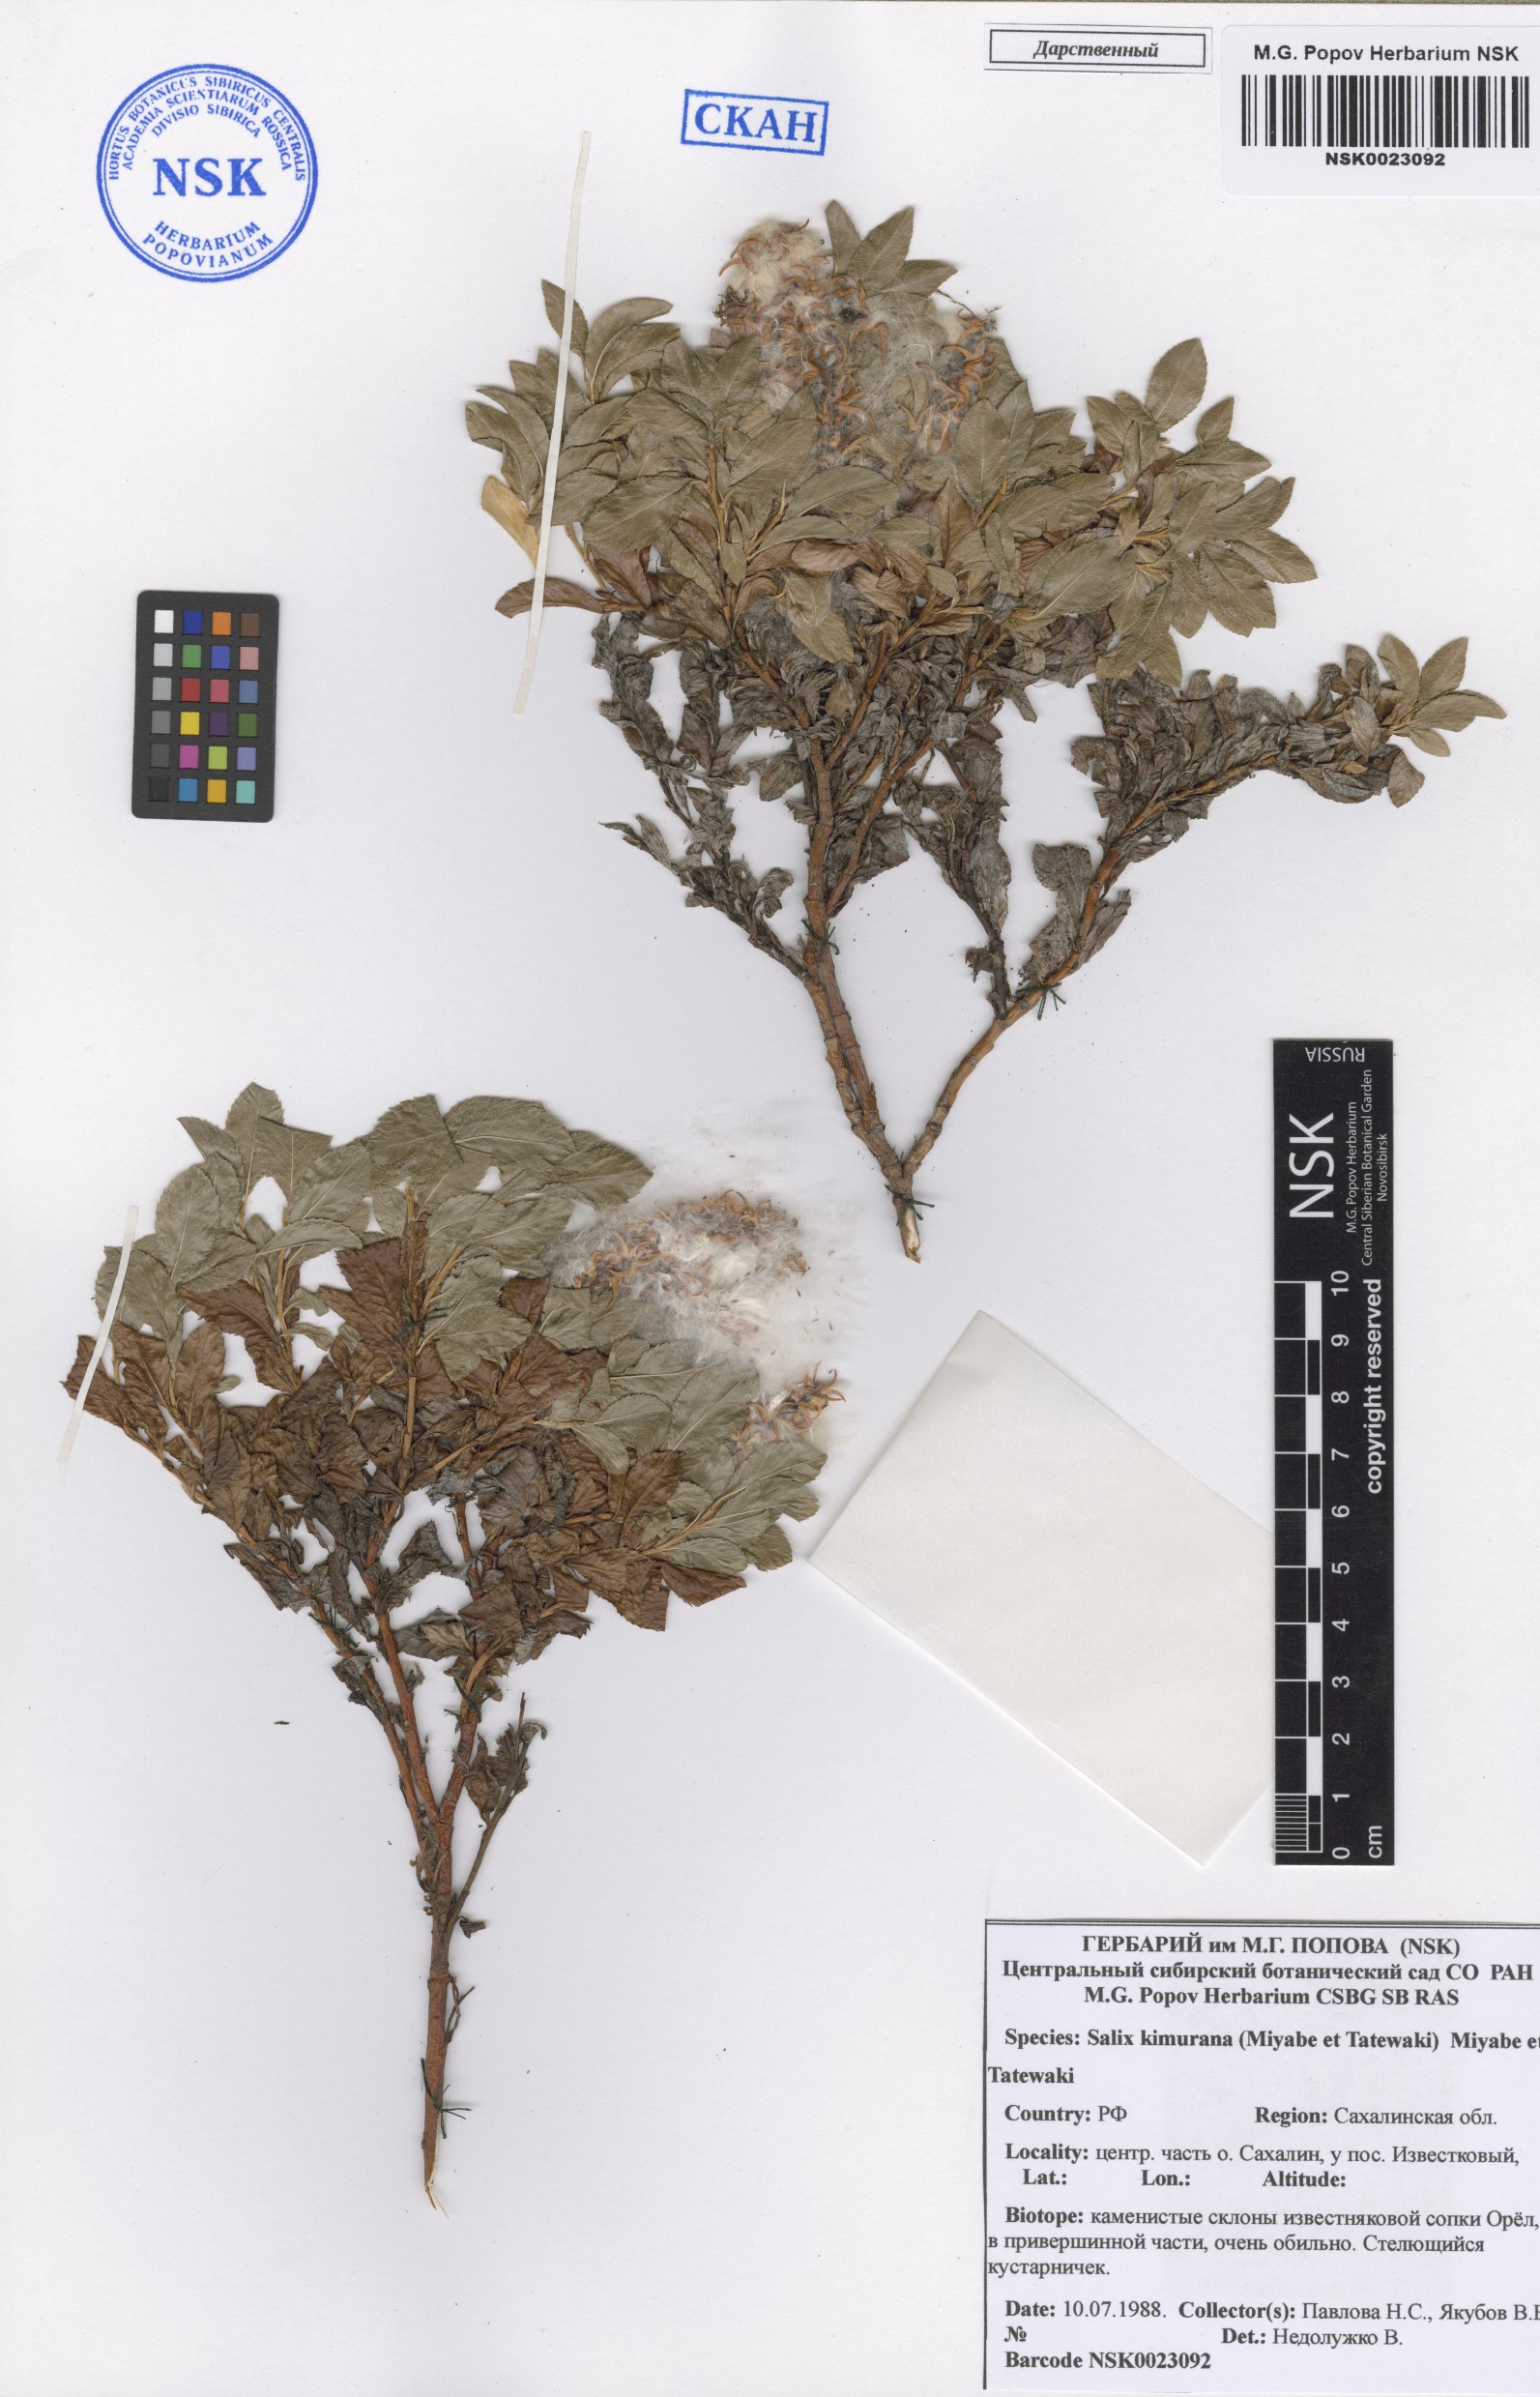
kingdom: Plantae
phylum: Tracheophyta
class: Magnoliopsida
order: Malpighiales
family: Salicaceae
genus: Salix
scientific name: Salix berberifolia
